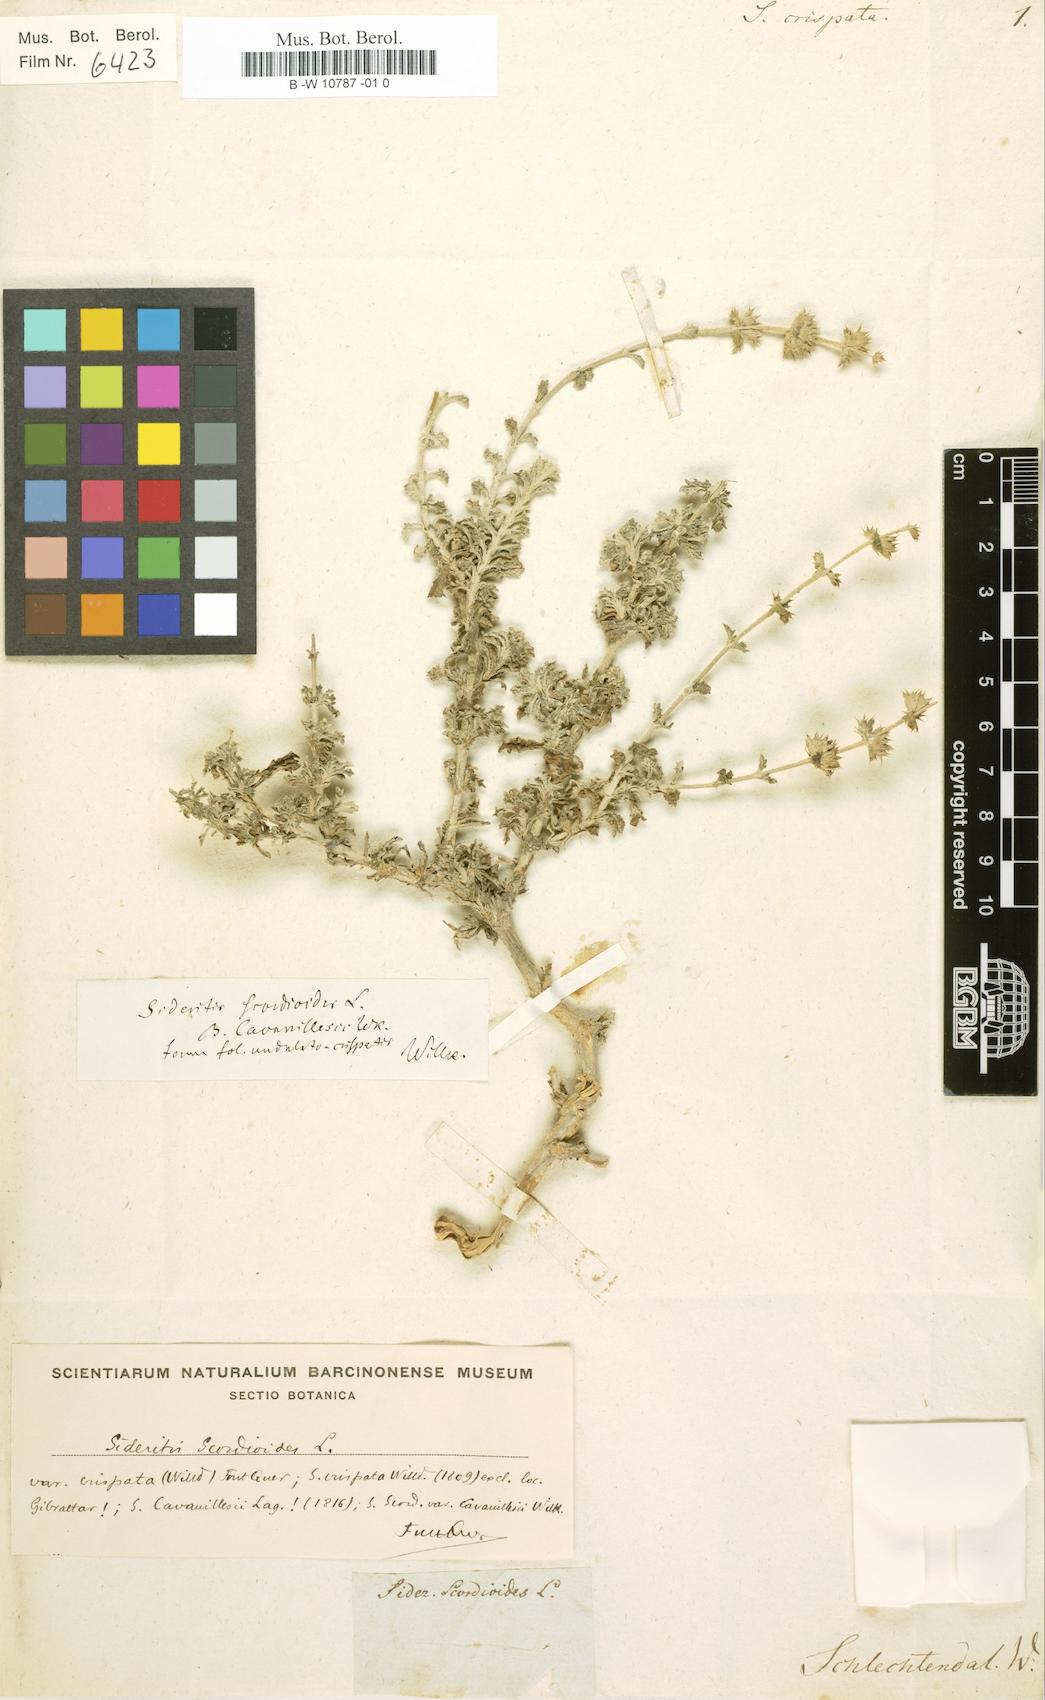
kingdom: Plantae
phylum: Tracheophyta
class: Magnoliopsida
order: Lamiales
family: Lamiaceae
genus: Sideritis
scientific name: Sideritis fruticulosa
